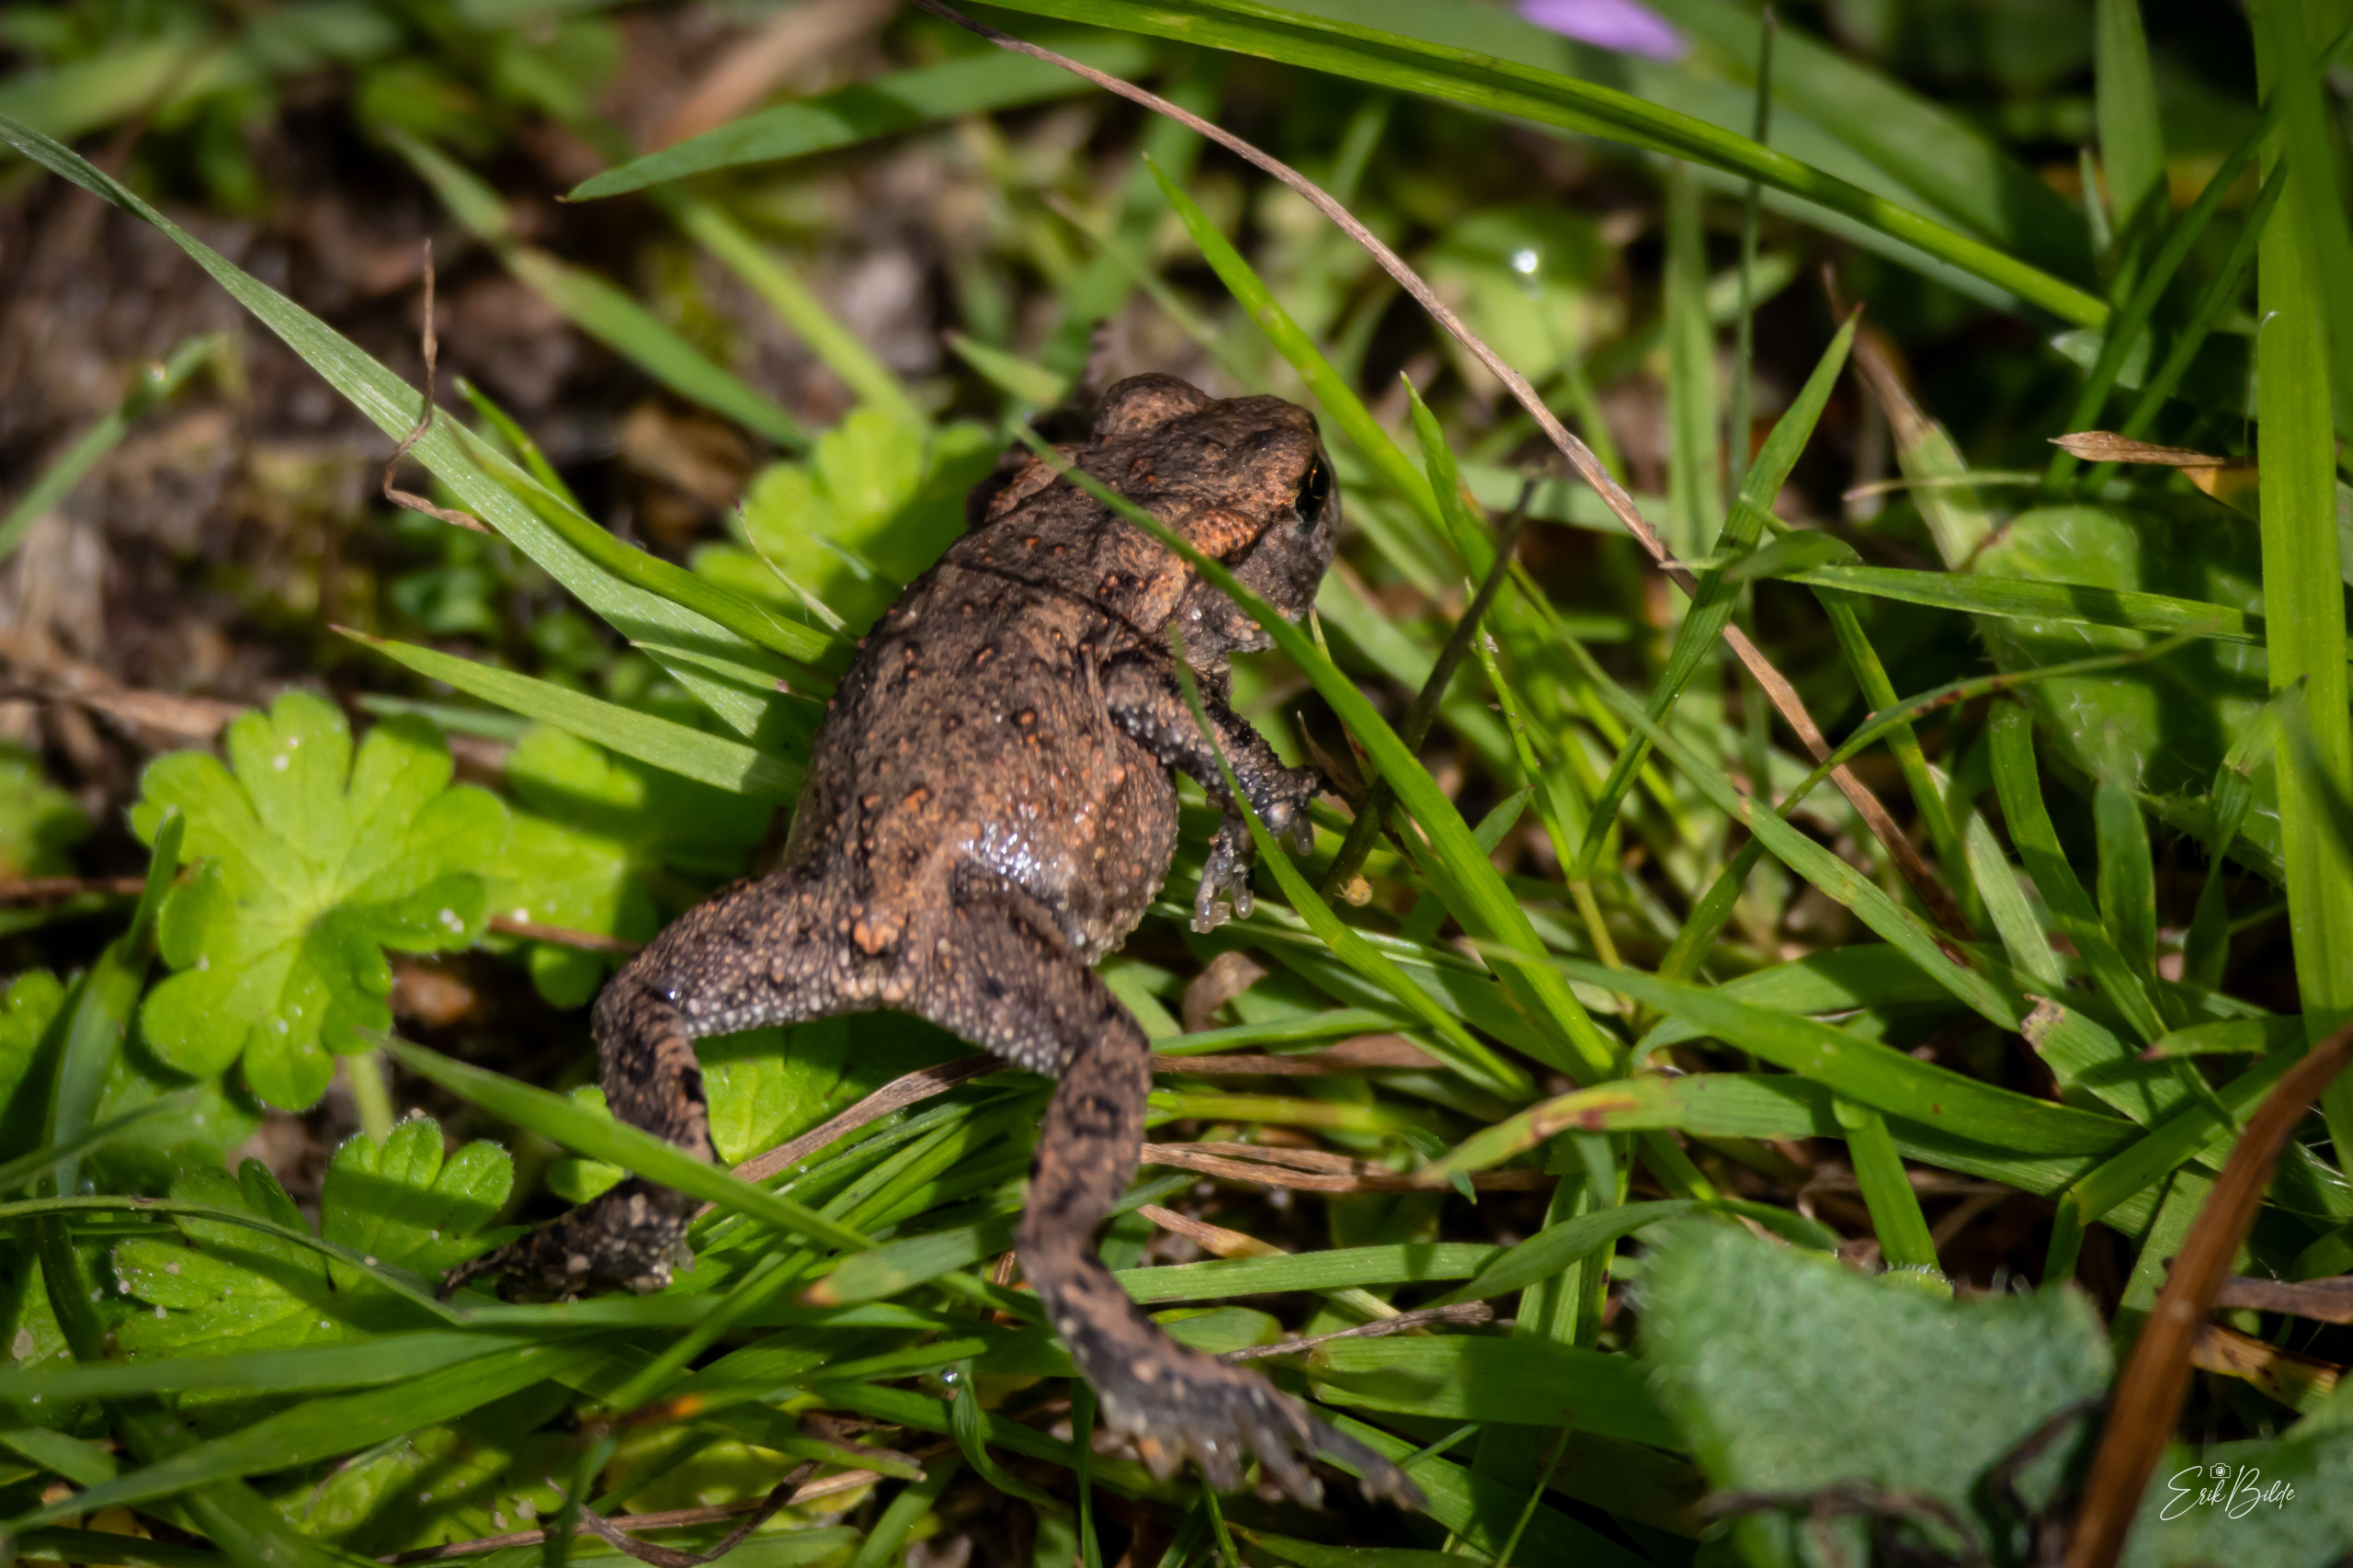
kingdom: Animalia
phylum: Chordata
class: Amphibia
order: Anura
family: Bufonidae
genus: Bufo
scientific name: Bufo bufo
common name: Skrubtudse
